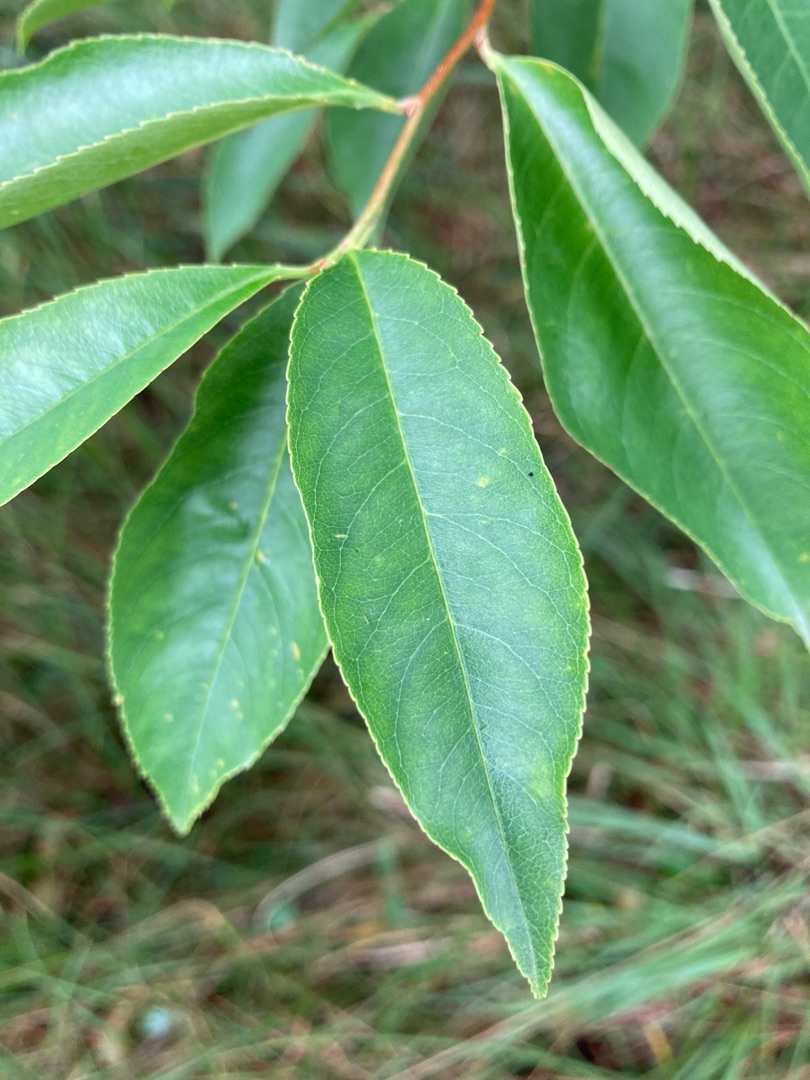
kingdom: Plantae
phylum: Tracheophyta
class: Magnoliopsida
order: Rosales
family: Rosaceae
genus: Prunus
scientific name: Prunus serotina
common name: Glansbladet hæg
